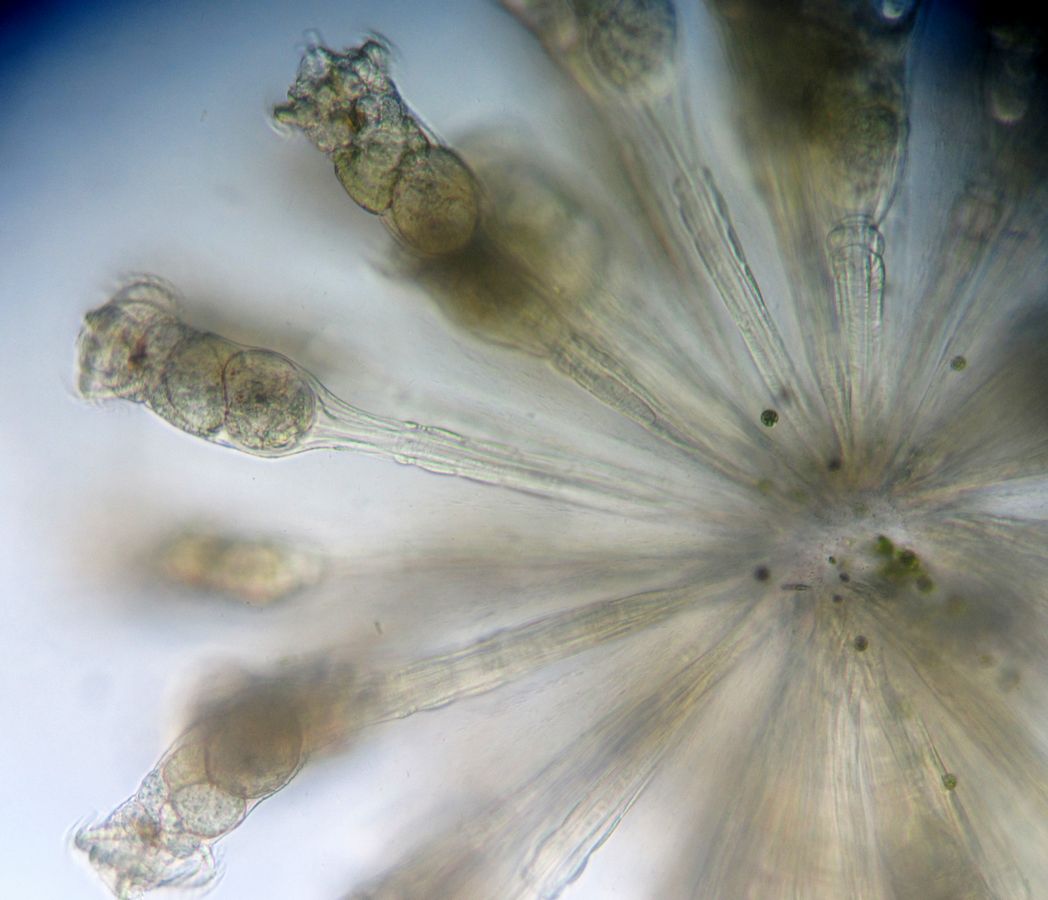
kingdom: Animalia
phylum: Rotifera
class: Eurotatoria
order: Flosculariaceae
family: Conochilidae
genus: Conochilus
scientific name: Conochilus hippocrepis
